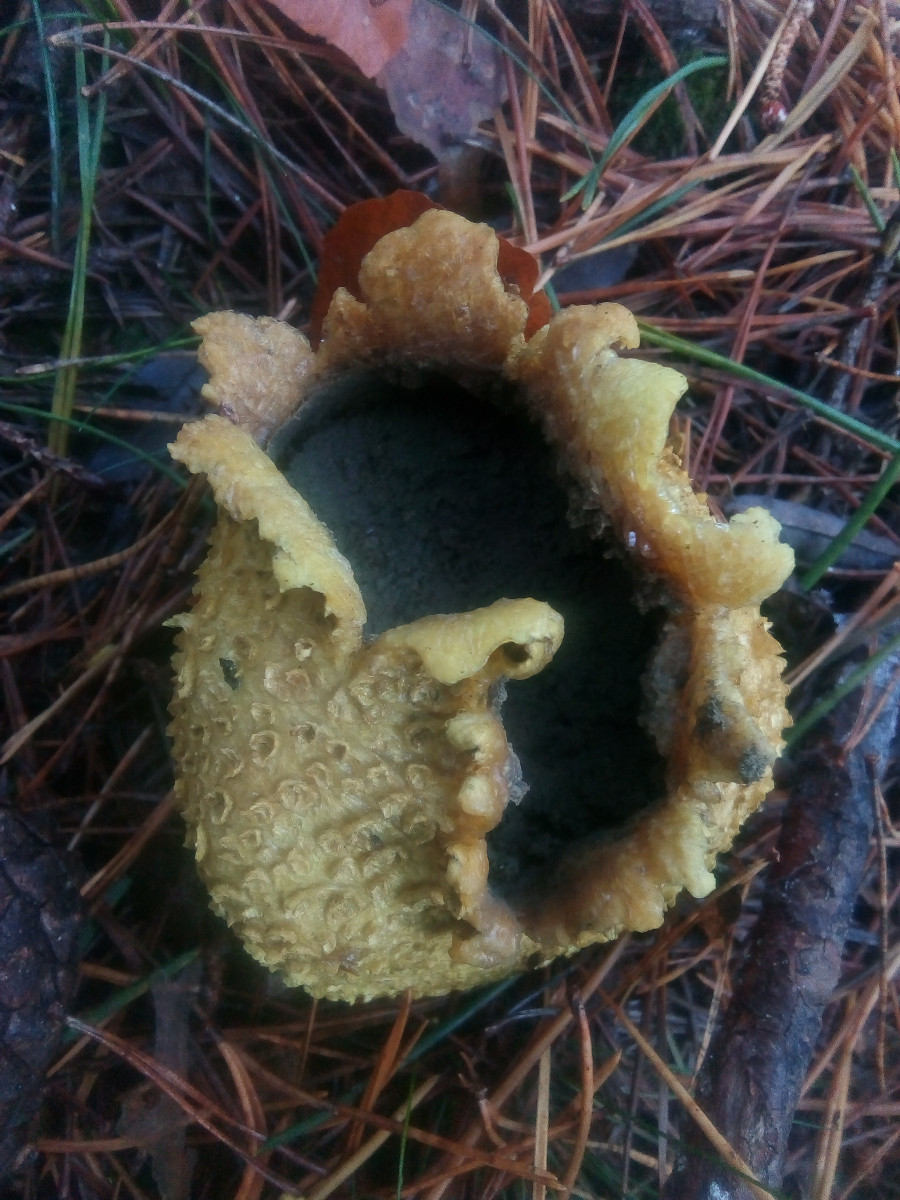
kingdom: Fungi
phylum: Basidiomycota
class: Agaricomycetes
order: Boletales
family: Sclerodermataceae
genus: Scleroderma
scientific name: Scleroderma citrinum
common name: almindelig bruskbold
